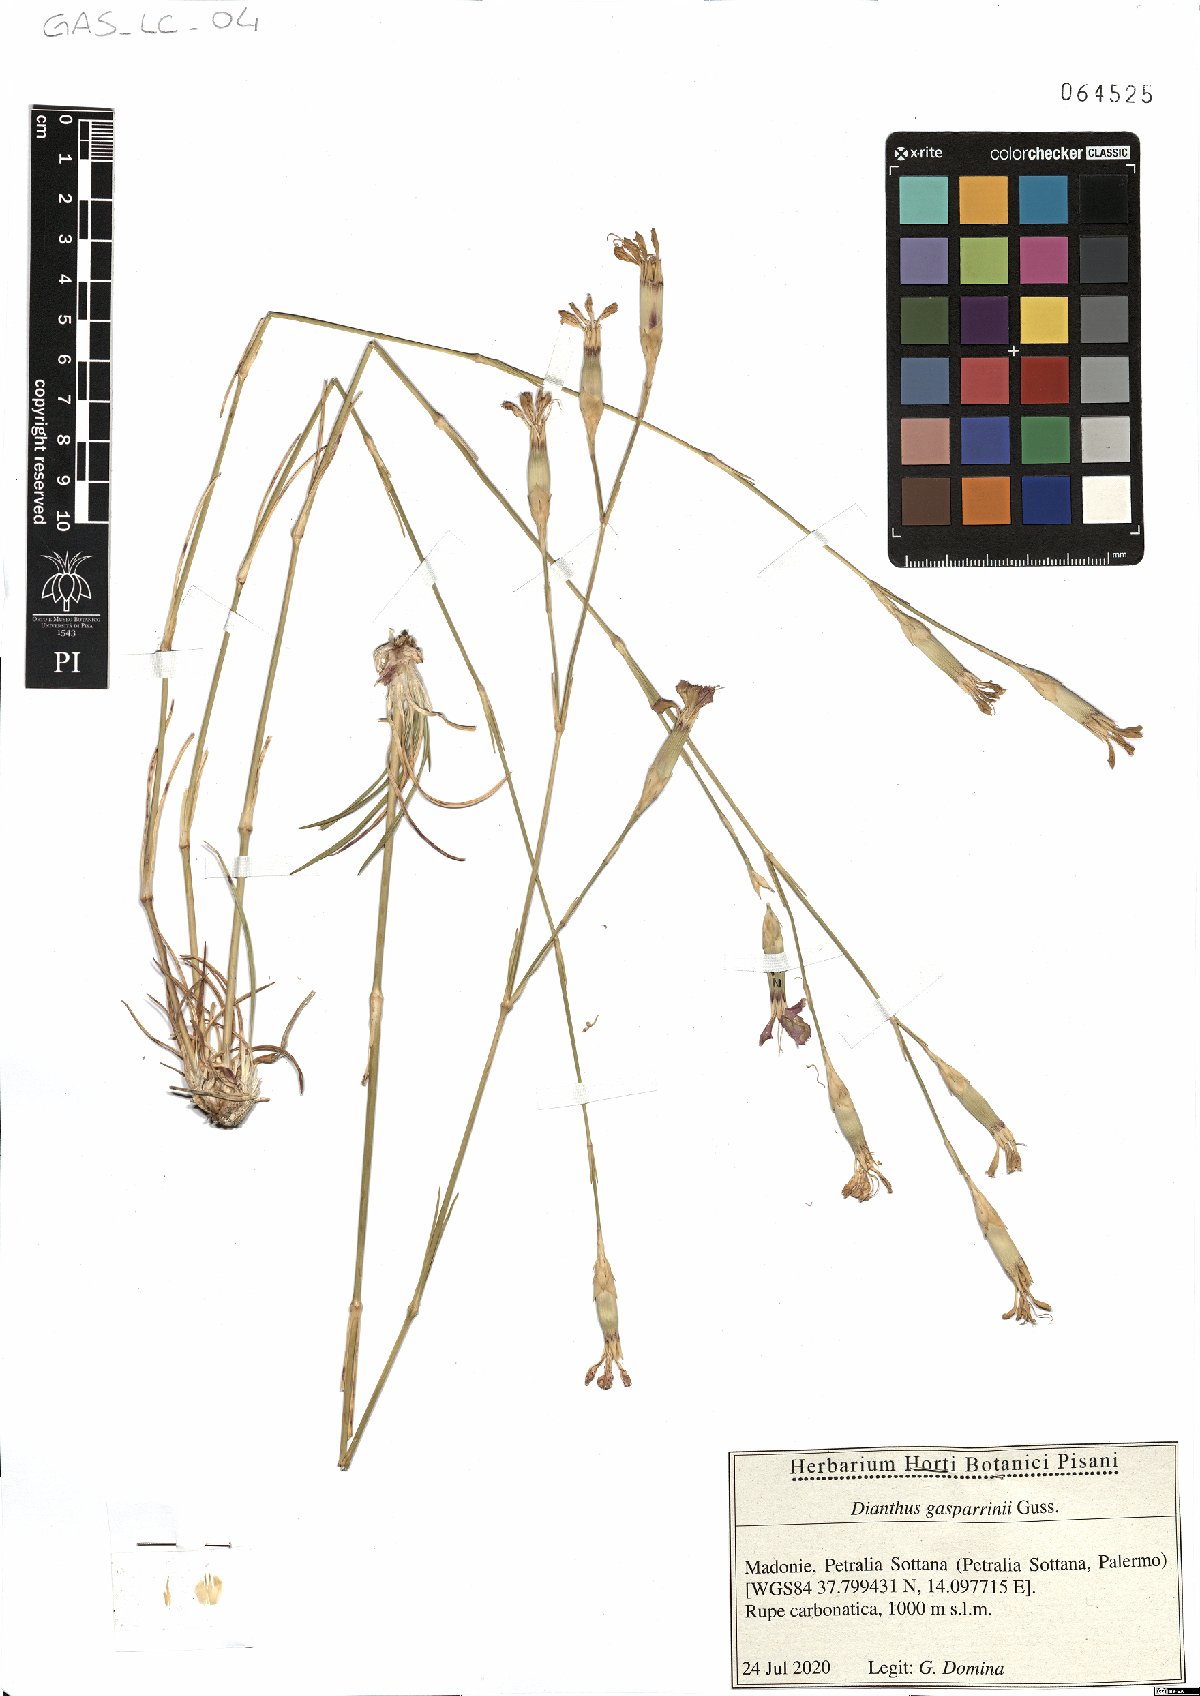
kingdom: Plantae
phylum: Tracheophyta
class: Magnoliopsida
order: Caryophyllales
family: Caryophyllaceae
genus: Dianthus
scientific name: Dianthus gasparrinii
